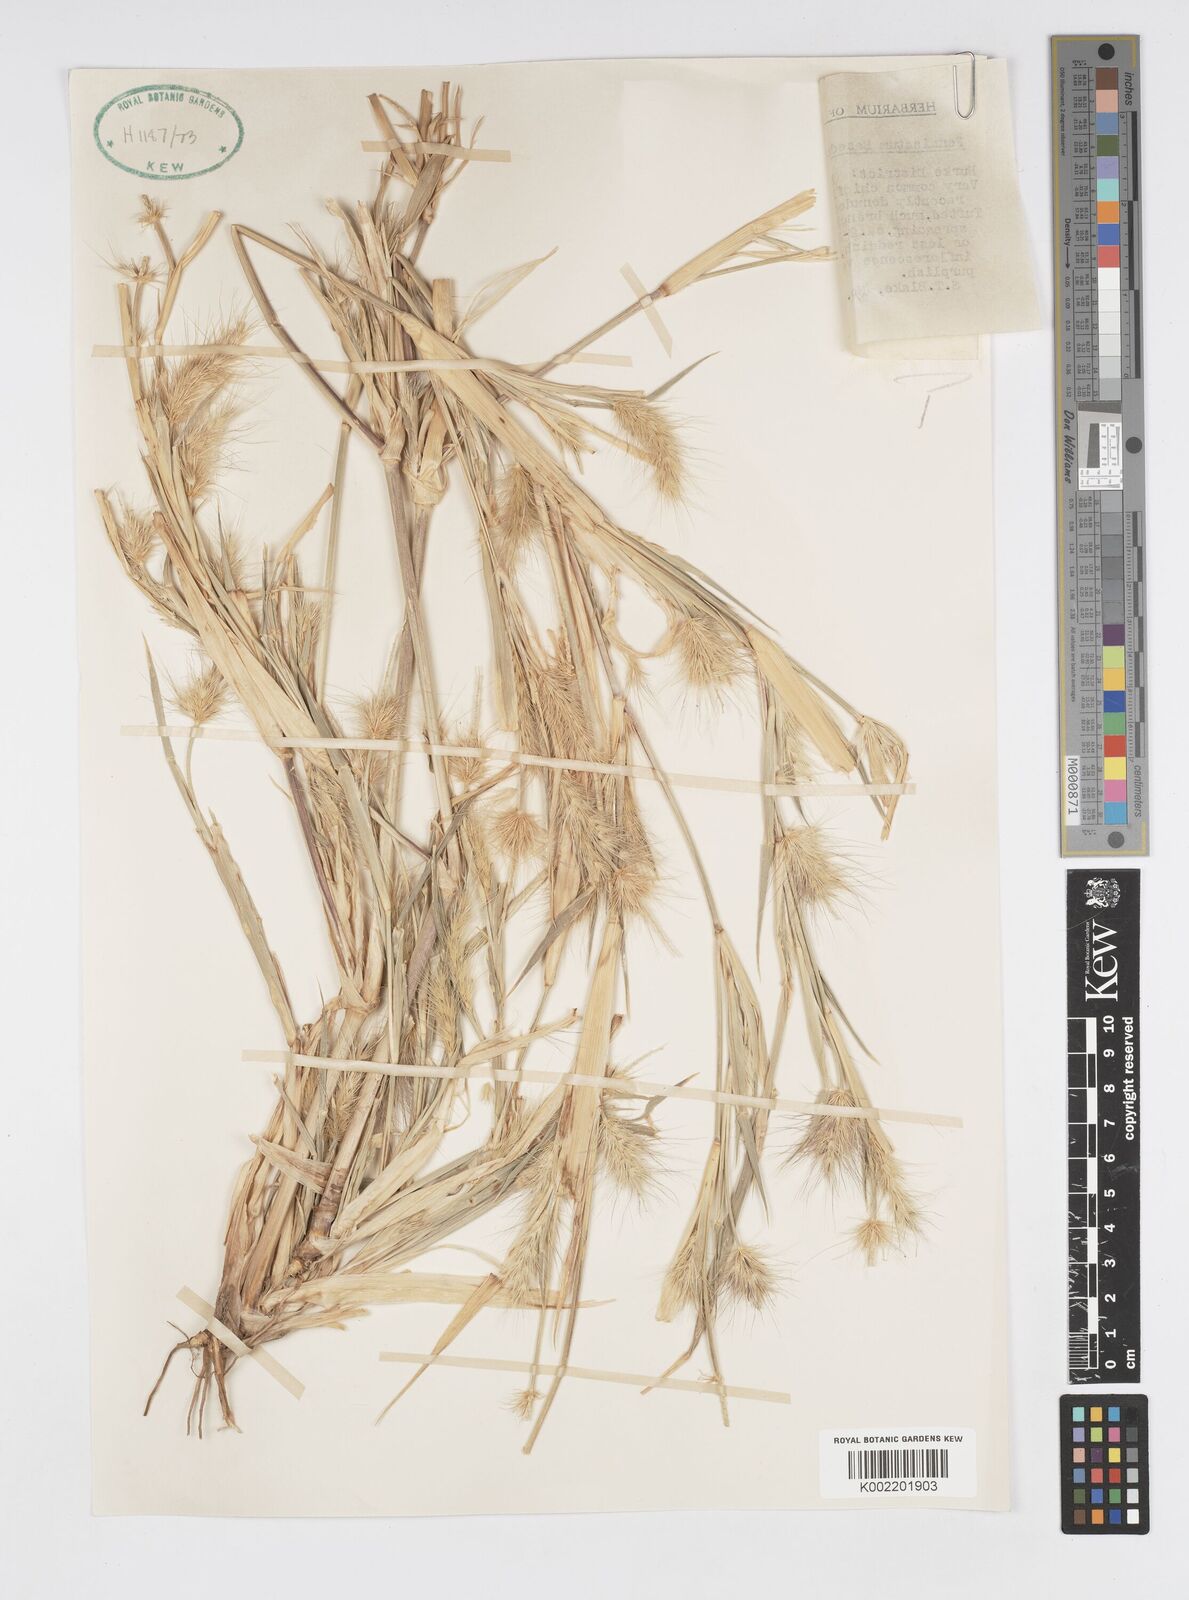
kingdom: Plantae
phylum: Tracheophyta
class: Liliopsida
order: Poales
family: Poaceae
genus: Cenchrus
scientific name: Cenchrus basedowii
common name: Asbestos grass
